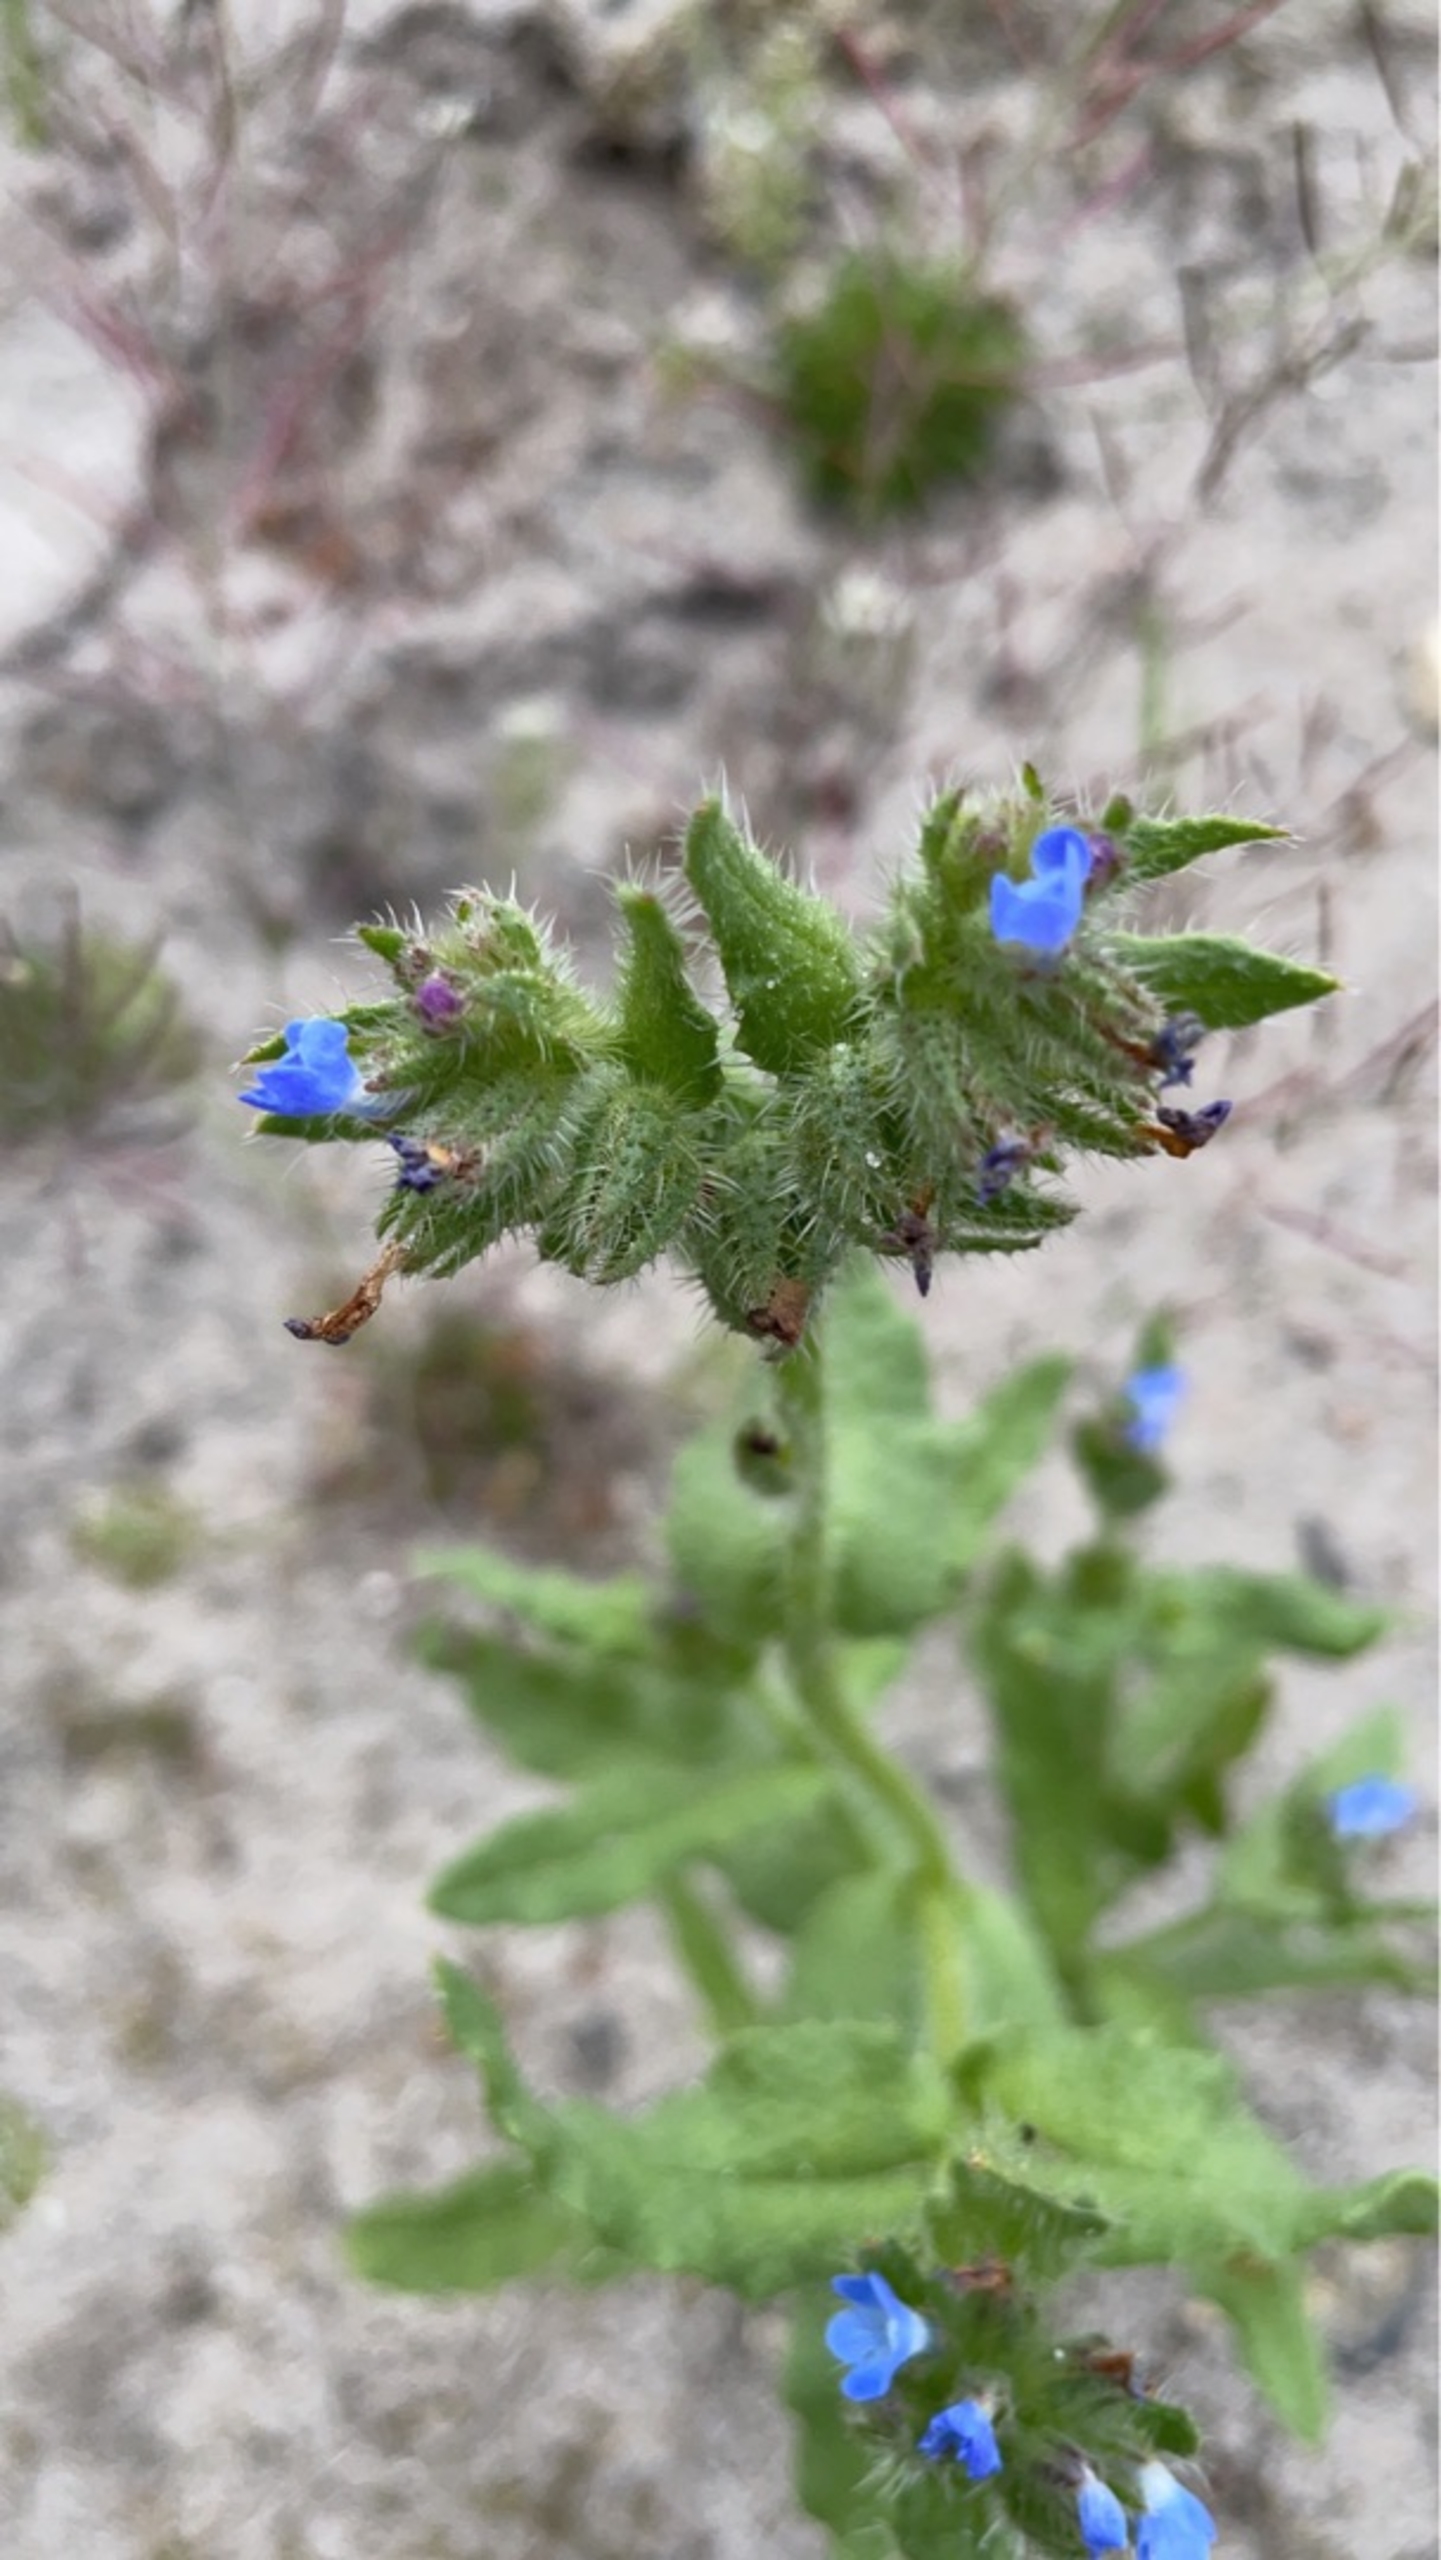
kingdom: Plantae
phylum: Tracheophyta
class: Magnoliopsida
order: Boraginales
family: Boraginaceae
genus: Lycopsis
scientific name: Lycopsis arvensis
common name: Krumhals
